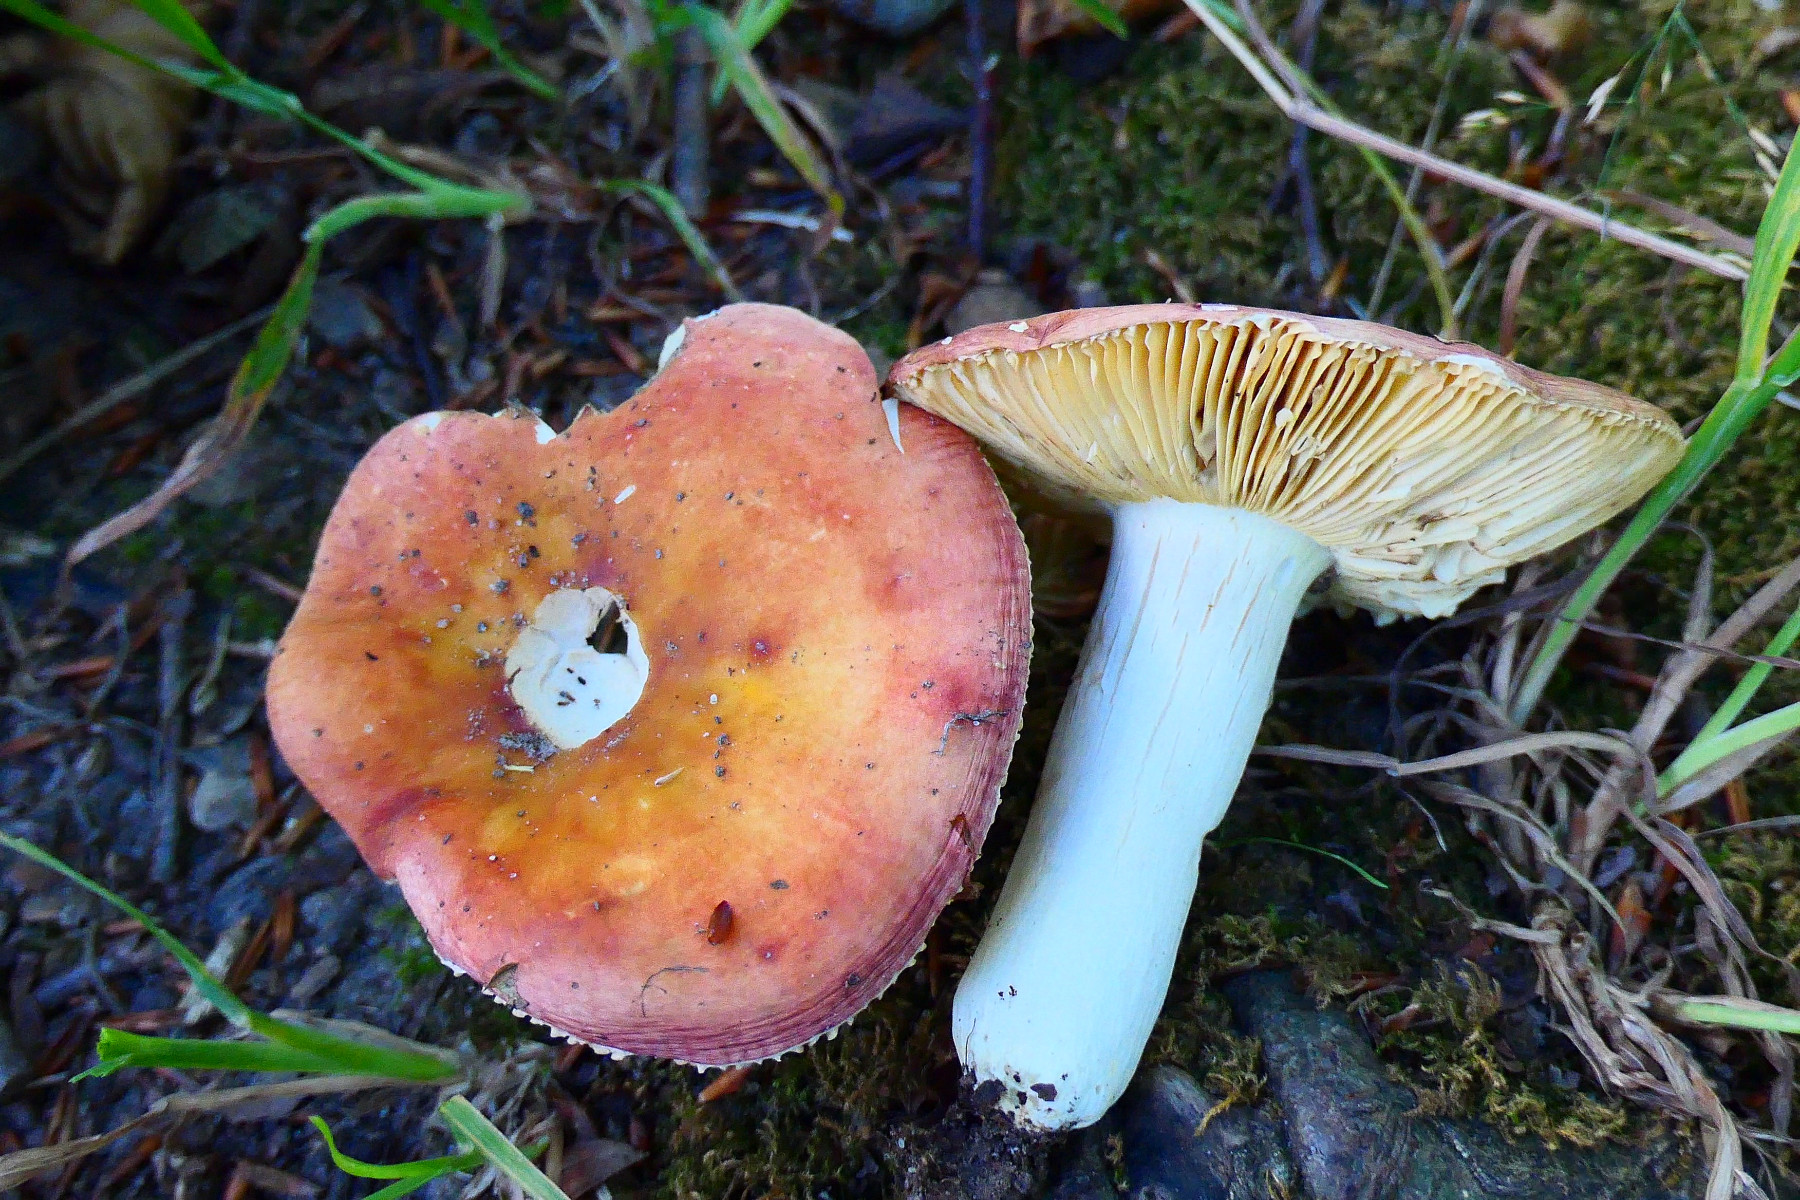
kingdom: Fungi
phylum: Basidiomycota
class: Agaricomycetes
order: Russulales
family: Russulaceae
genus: Russula
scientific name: Russula aurea
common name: gylden skørhat
